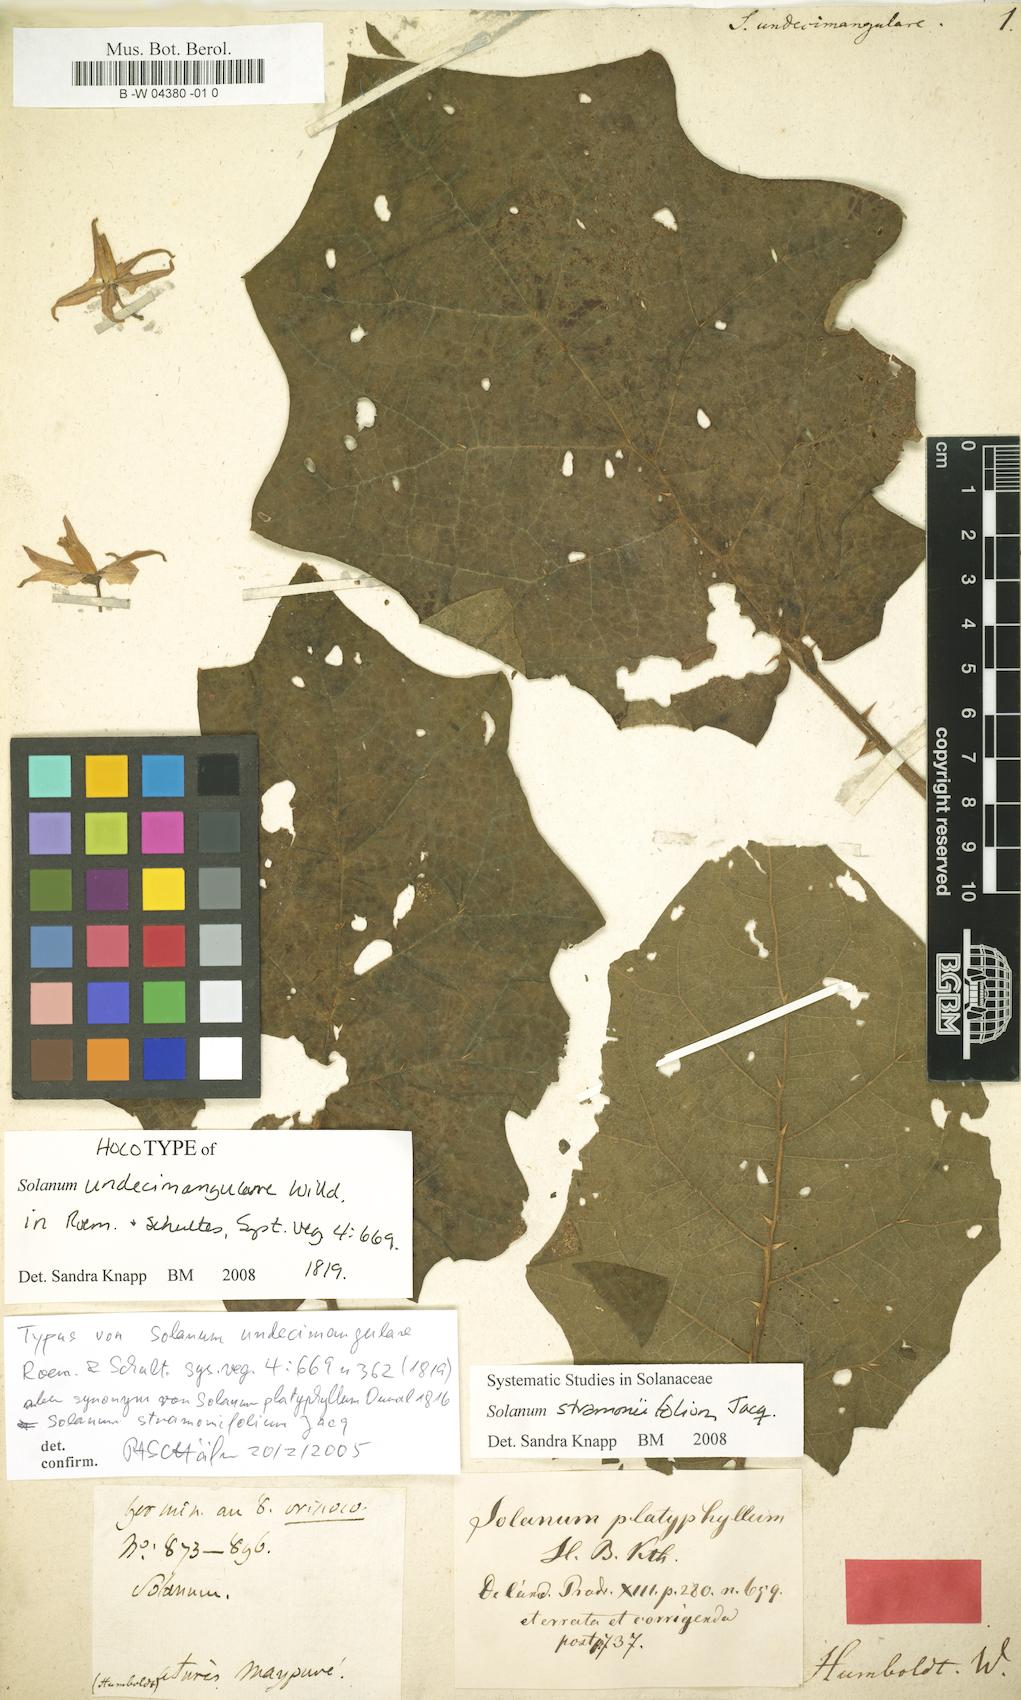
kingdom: Plantae
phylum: Tracheophyta
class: Magnoliopsida
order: Solanales
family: Solanaceae
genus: Solanum
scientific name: Solanum stramonifolium
